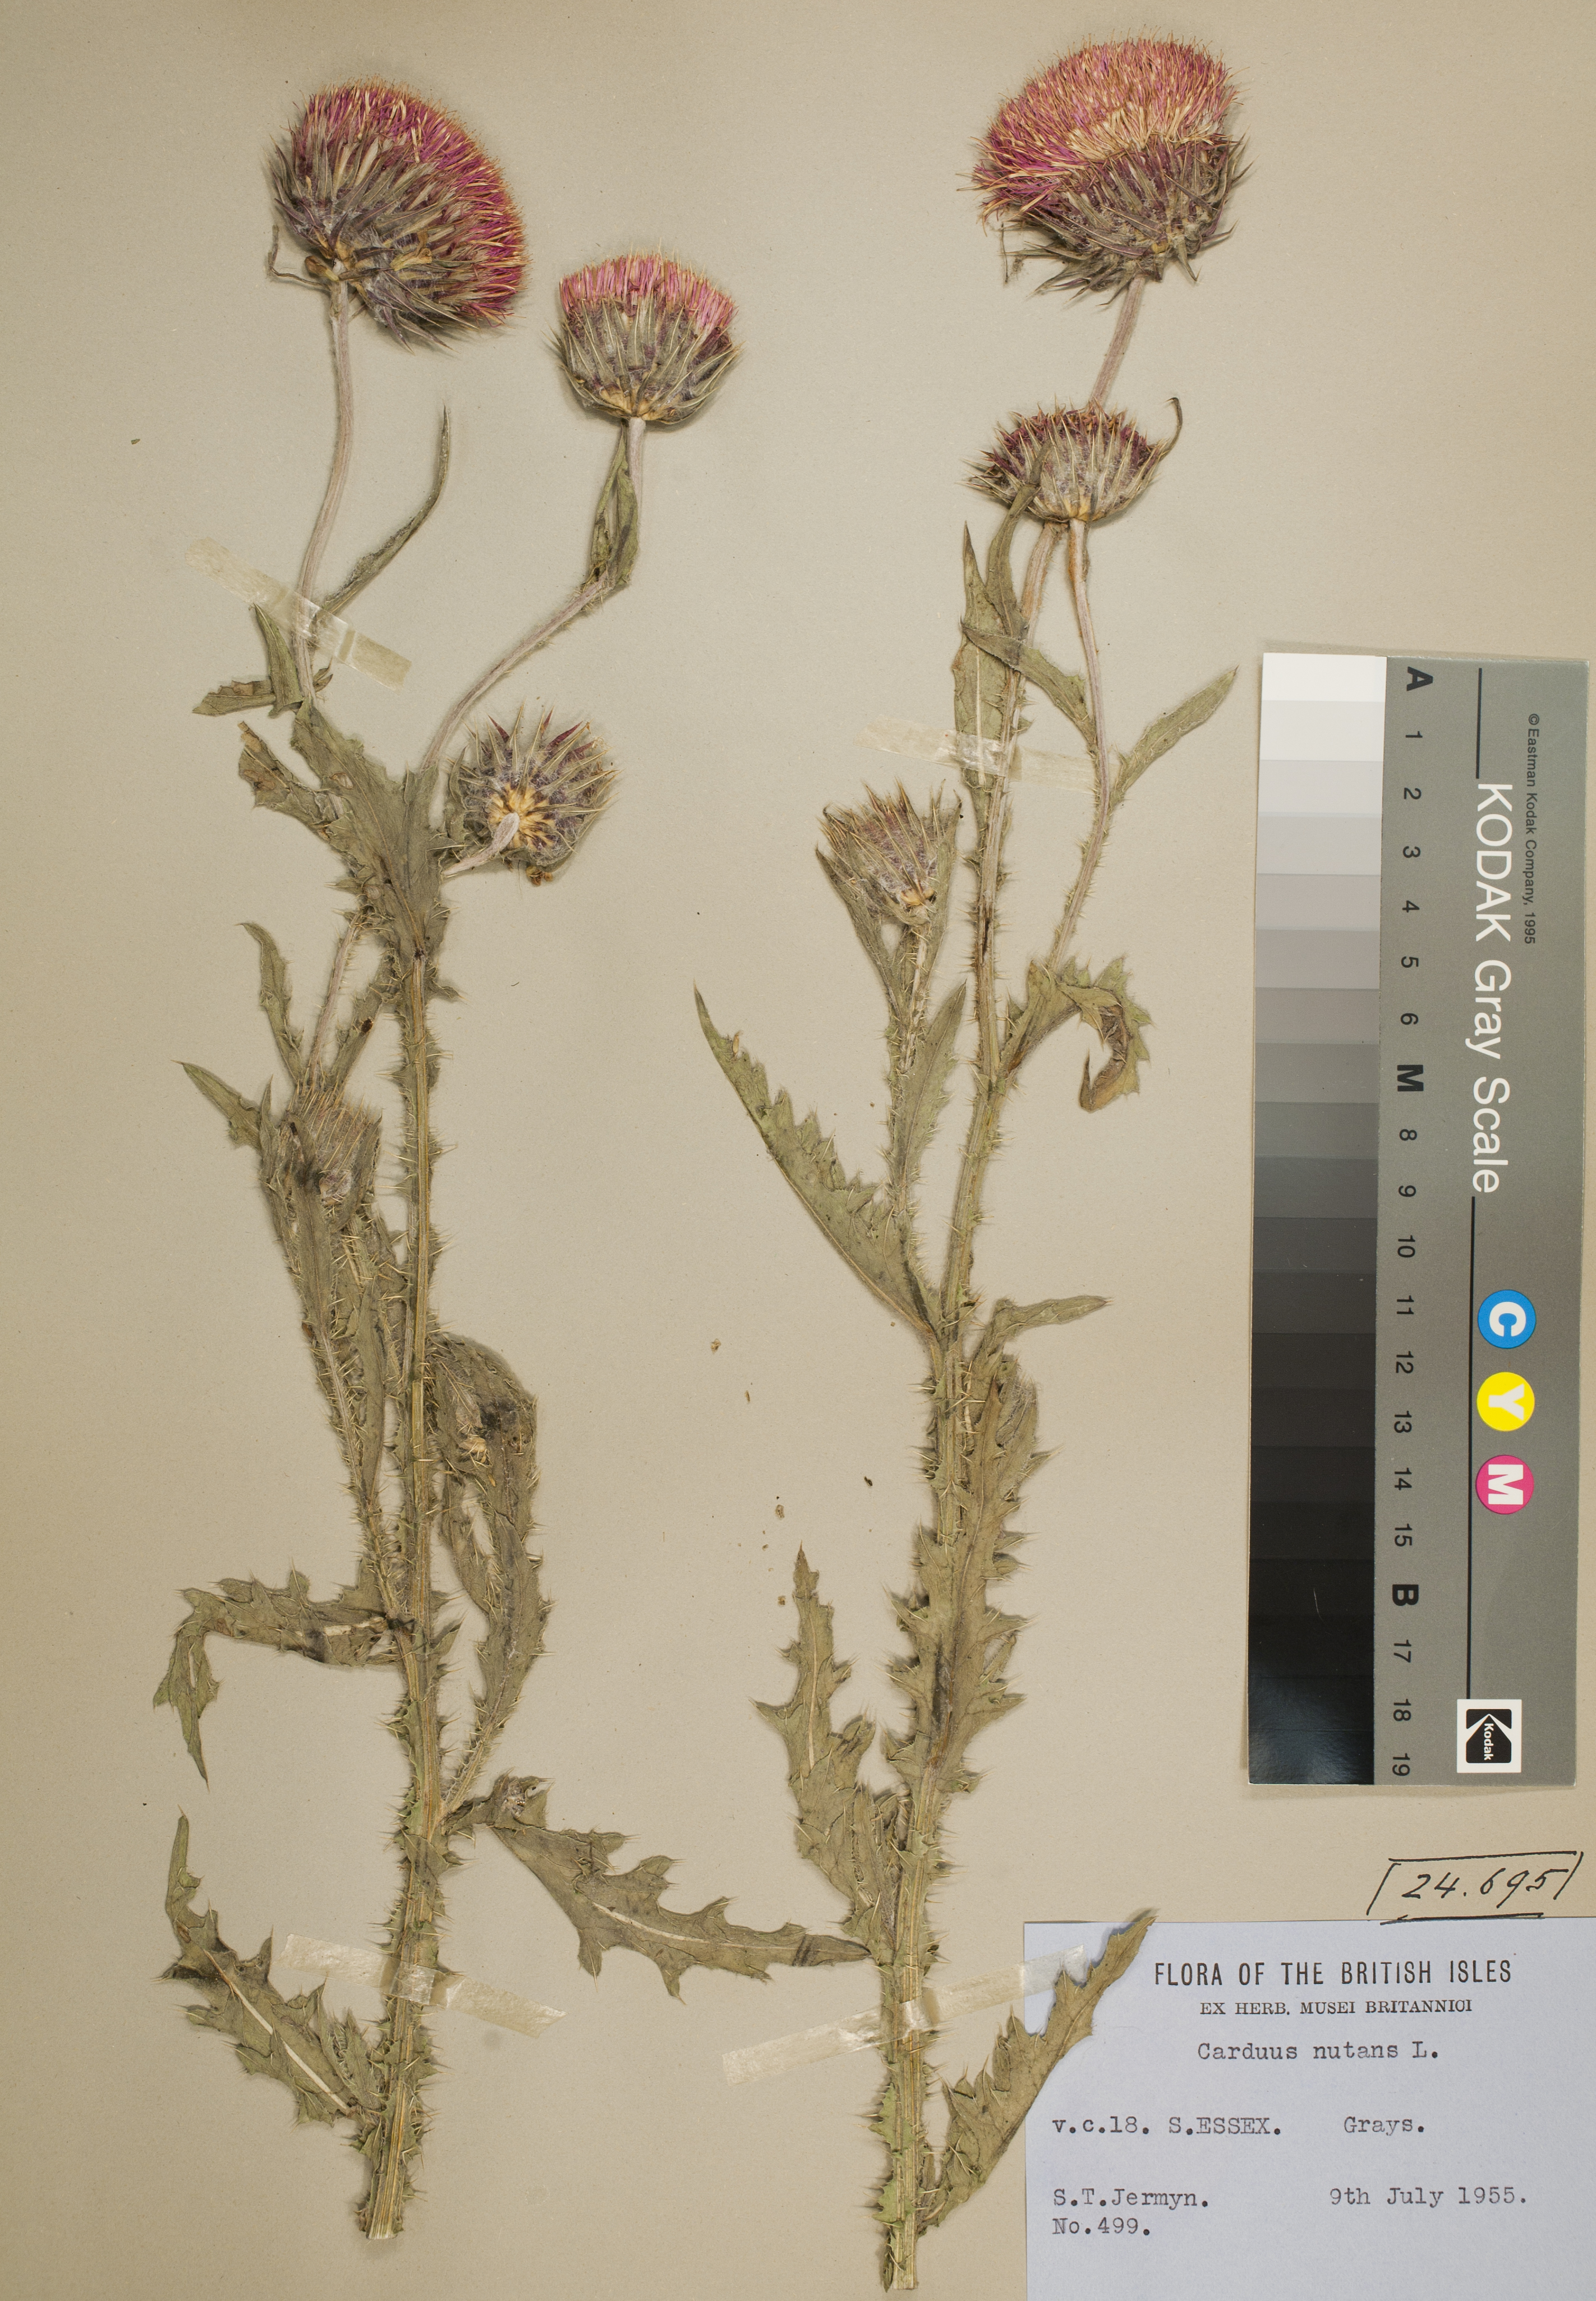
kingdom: Plantae
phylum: Tracheophyta
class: Magnoliopsida
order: Asterales
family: Asteraceae
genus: Carduus
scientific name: Carduus nutans
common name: Musk thistle
